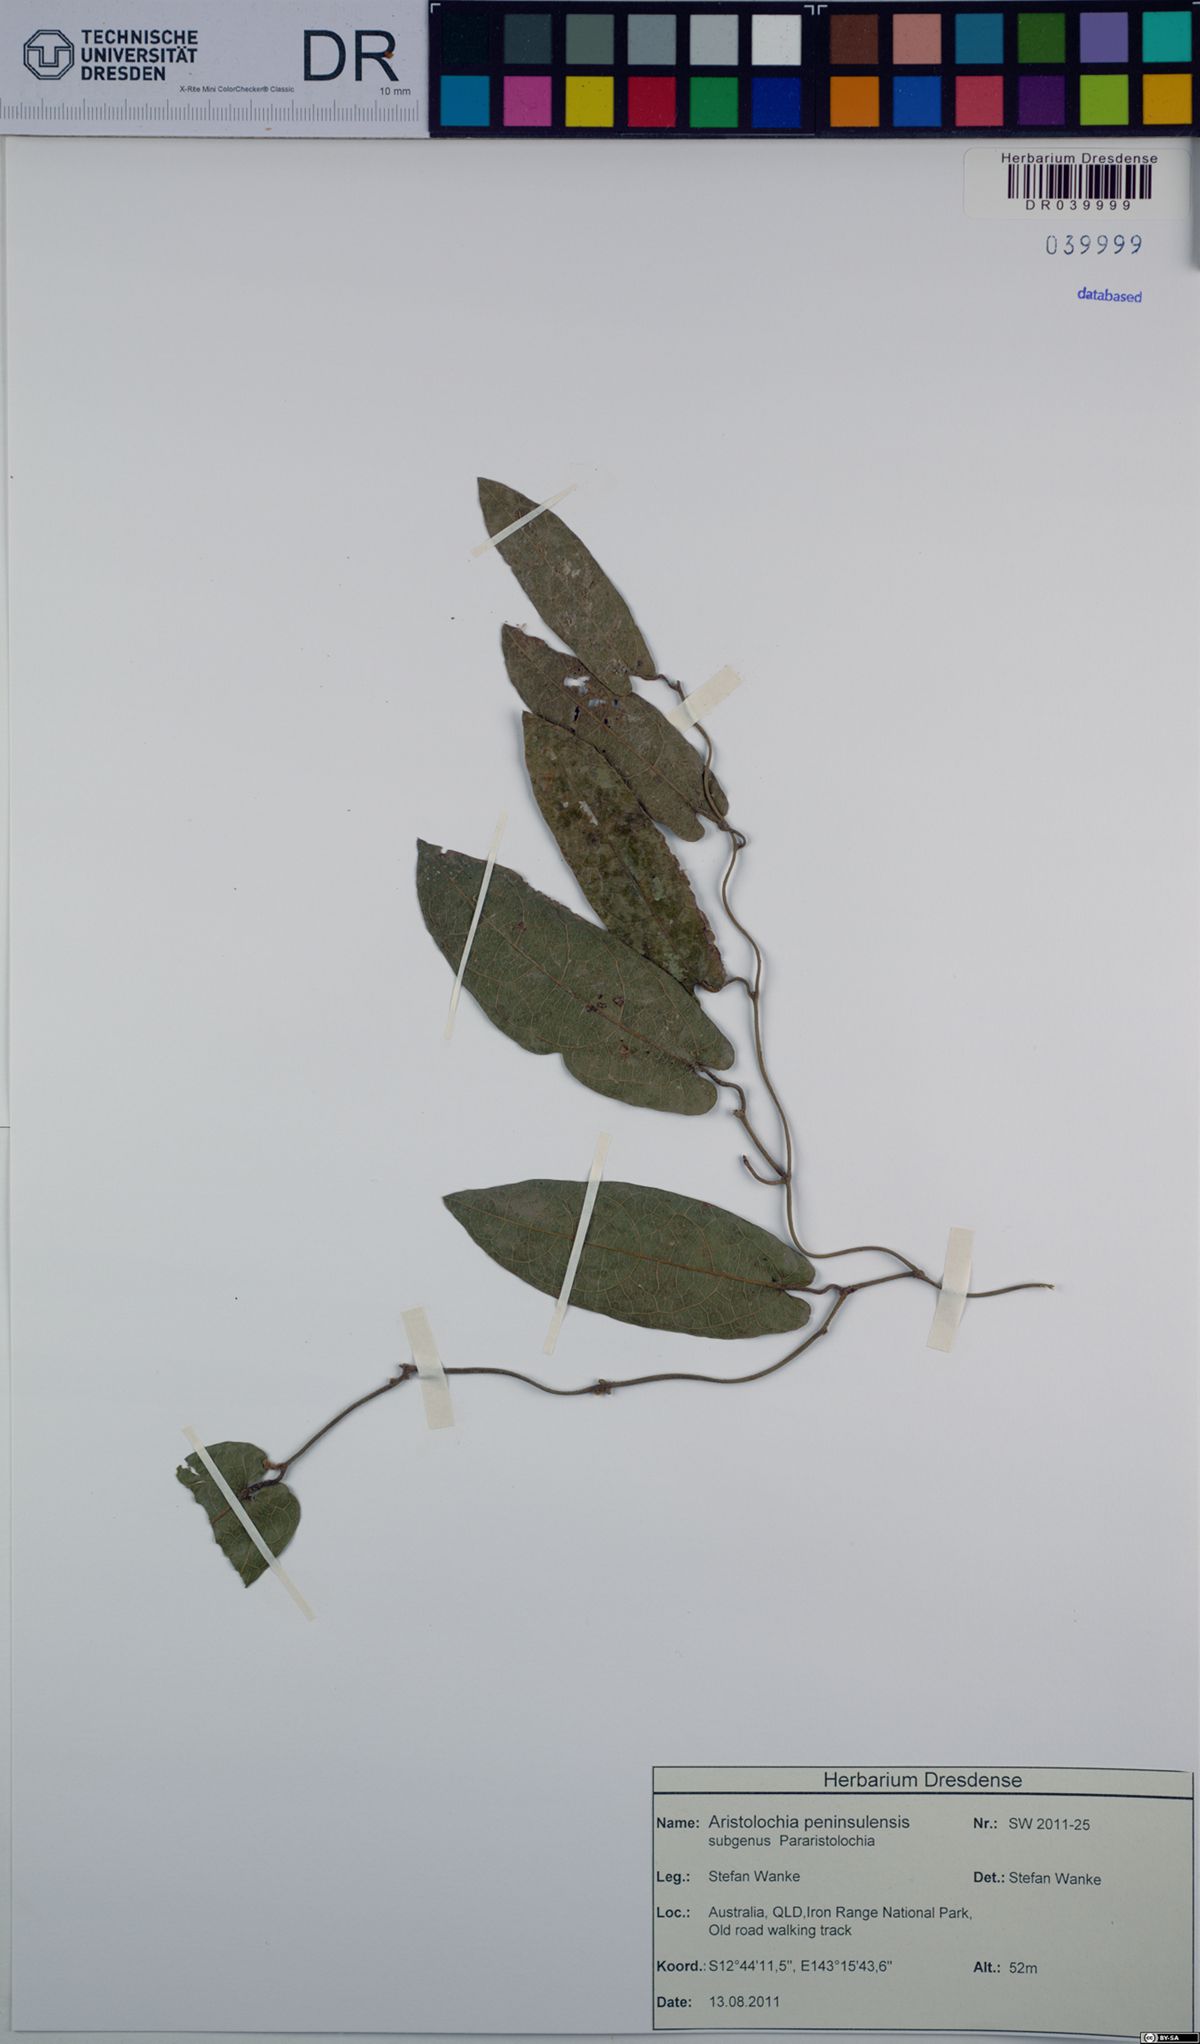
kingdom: Plantae
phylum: Tracheophyta
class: Magnoliopsida
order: Piperales
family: Aristolochiaceae
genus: Aristolochia
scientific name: Aristolochia peninsulensis
